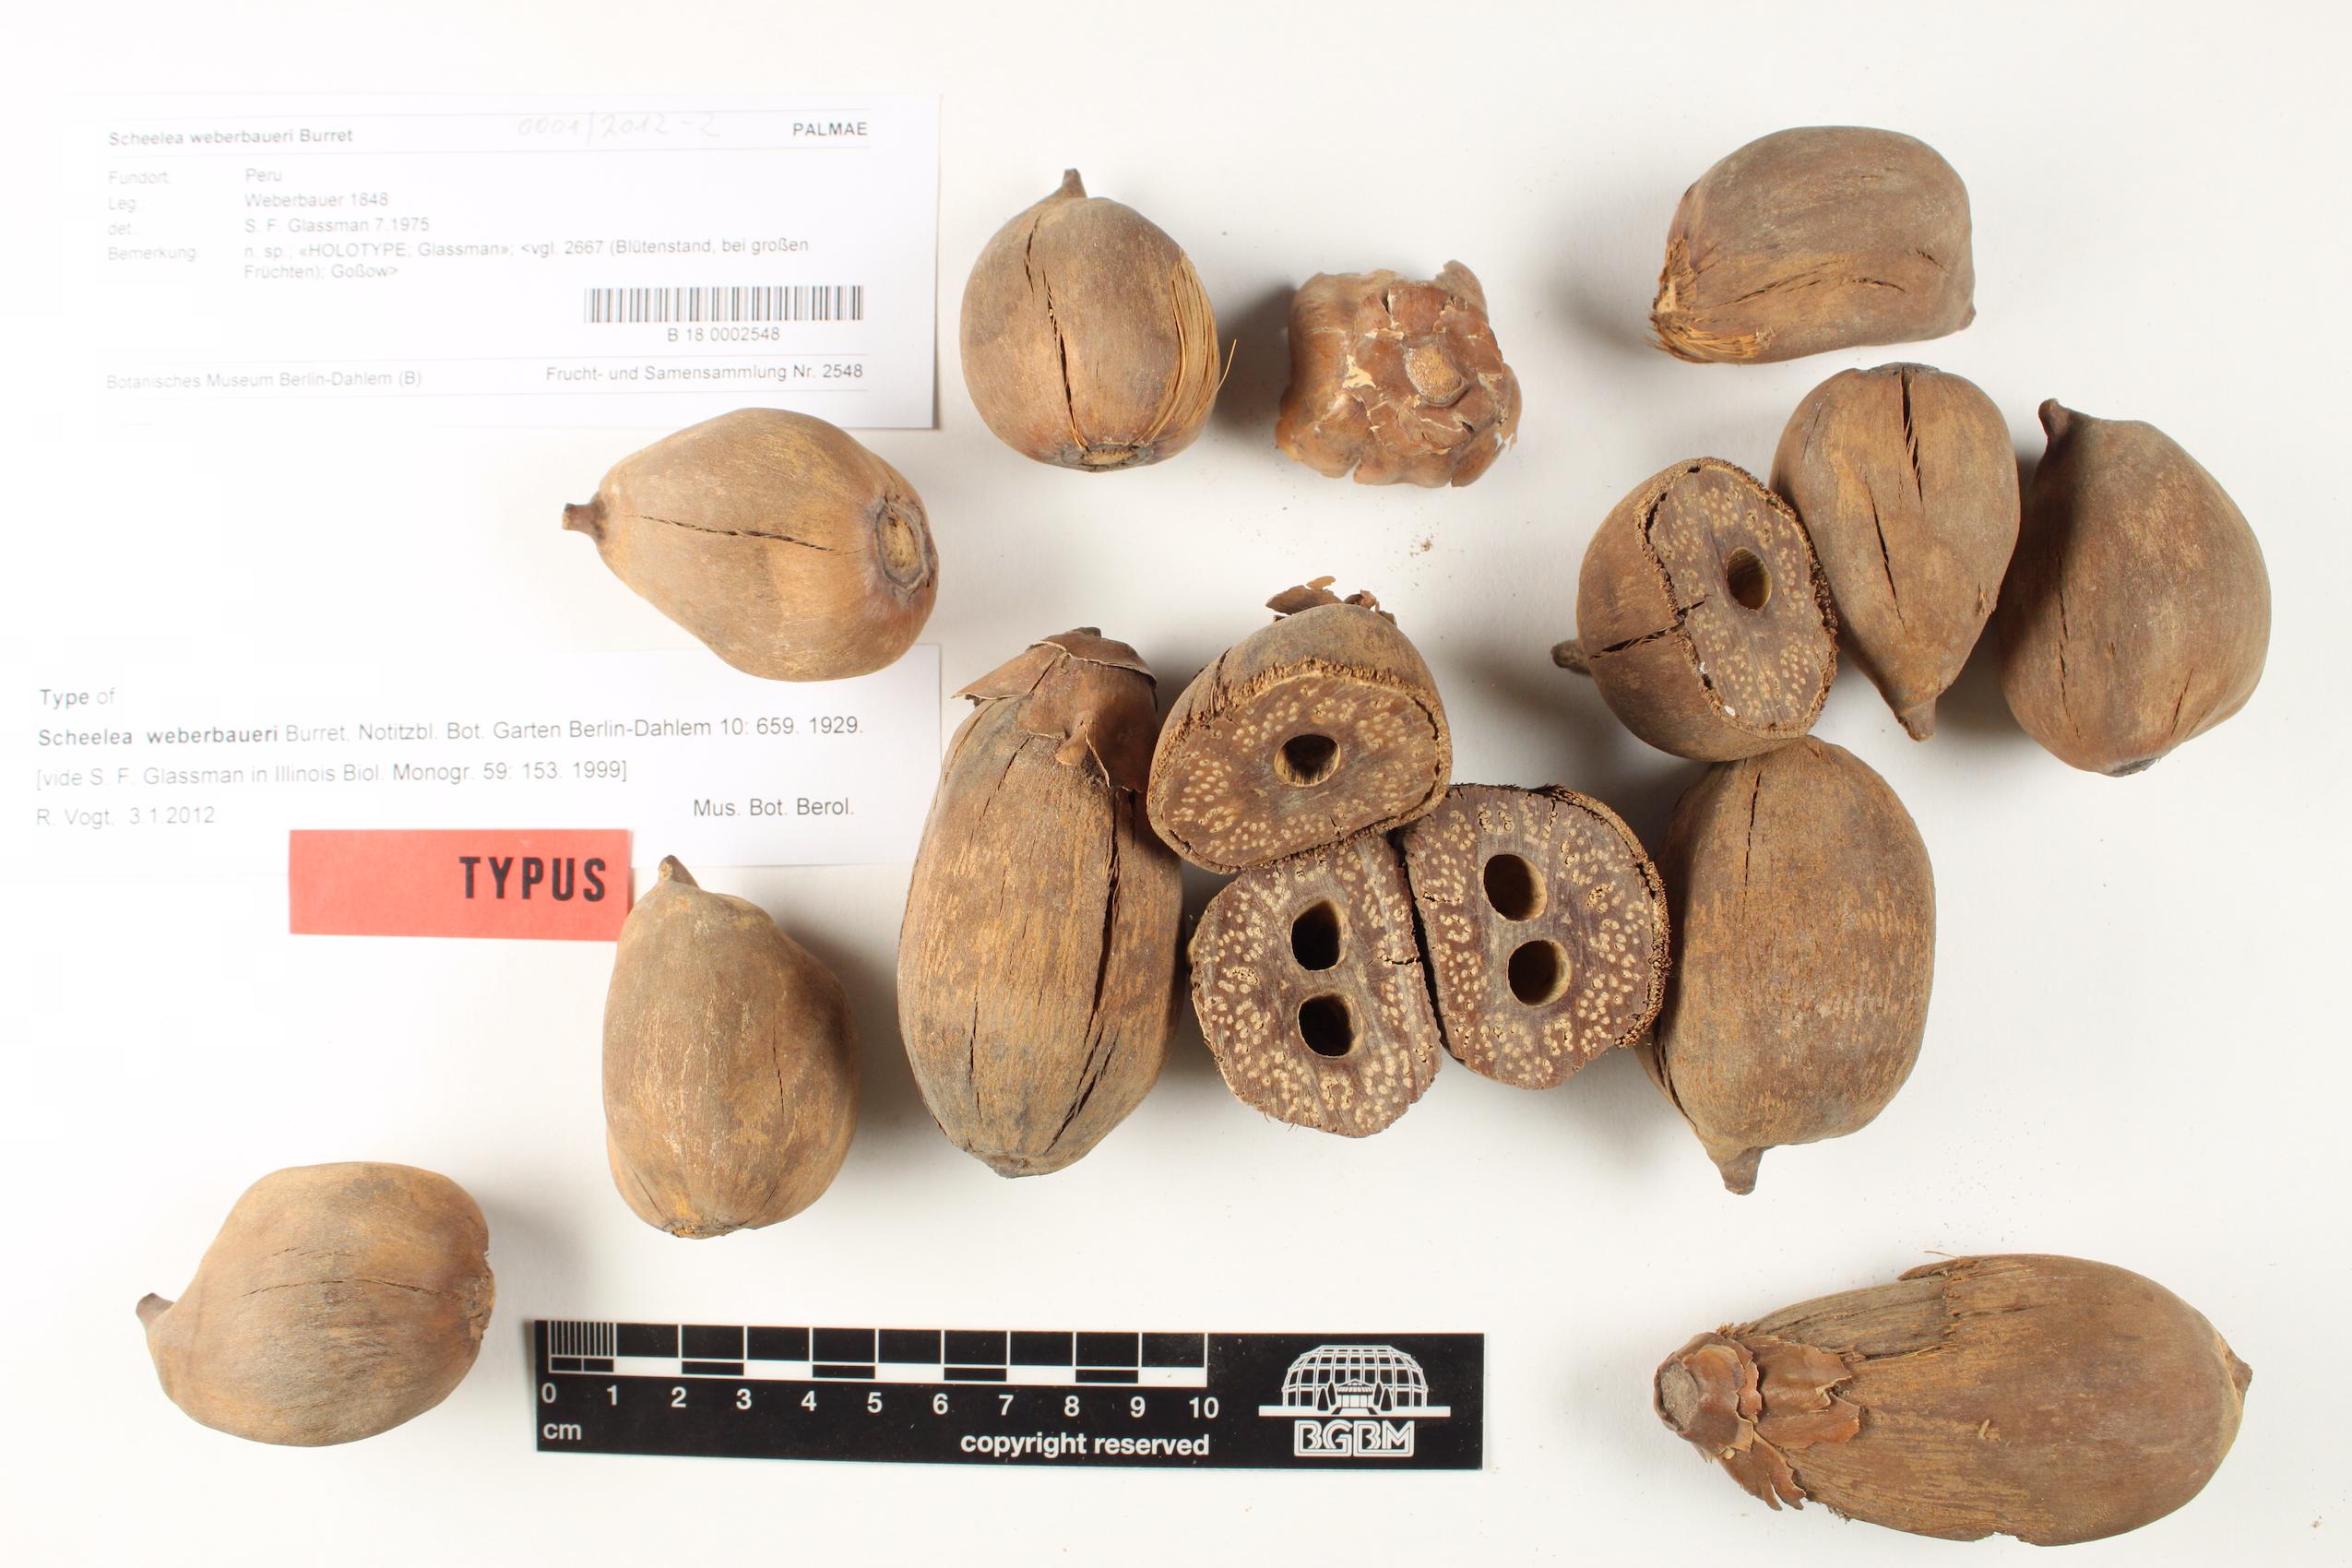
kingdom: Plantae
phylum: Tracheophyta
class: Liliopsida
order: Arecales
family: Arecaceae
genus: Attalea
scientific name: Attalea weberbaueri
